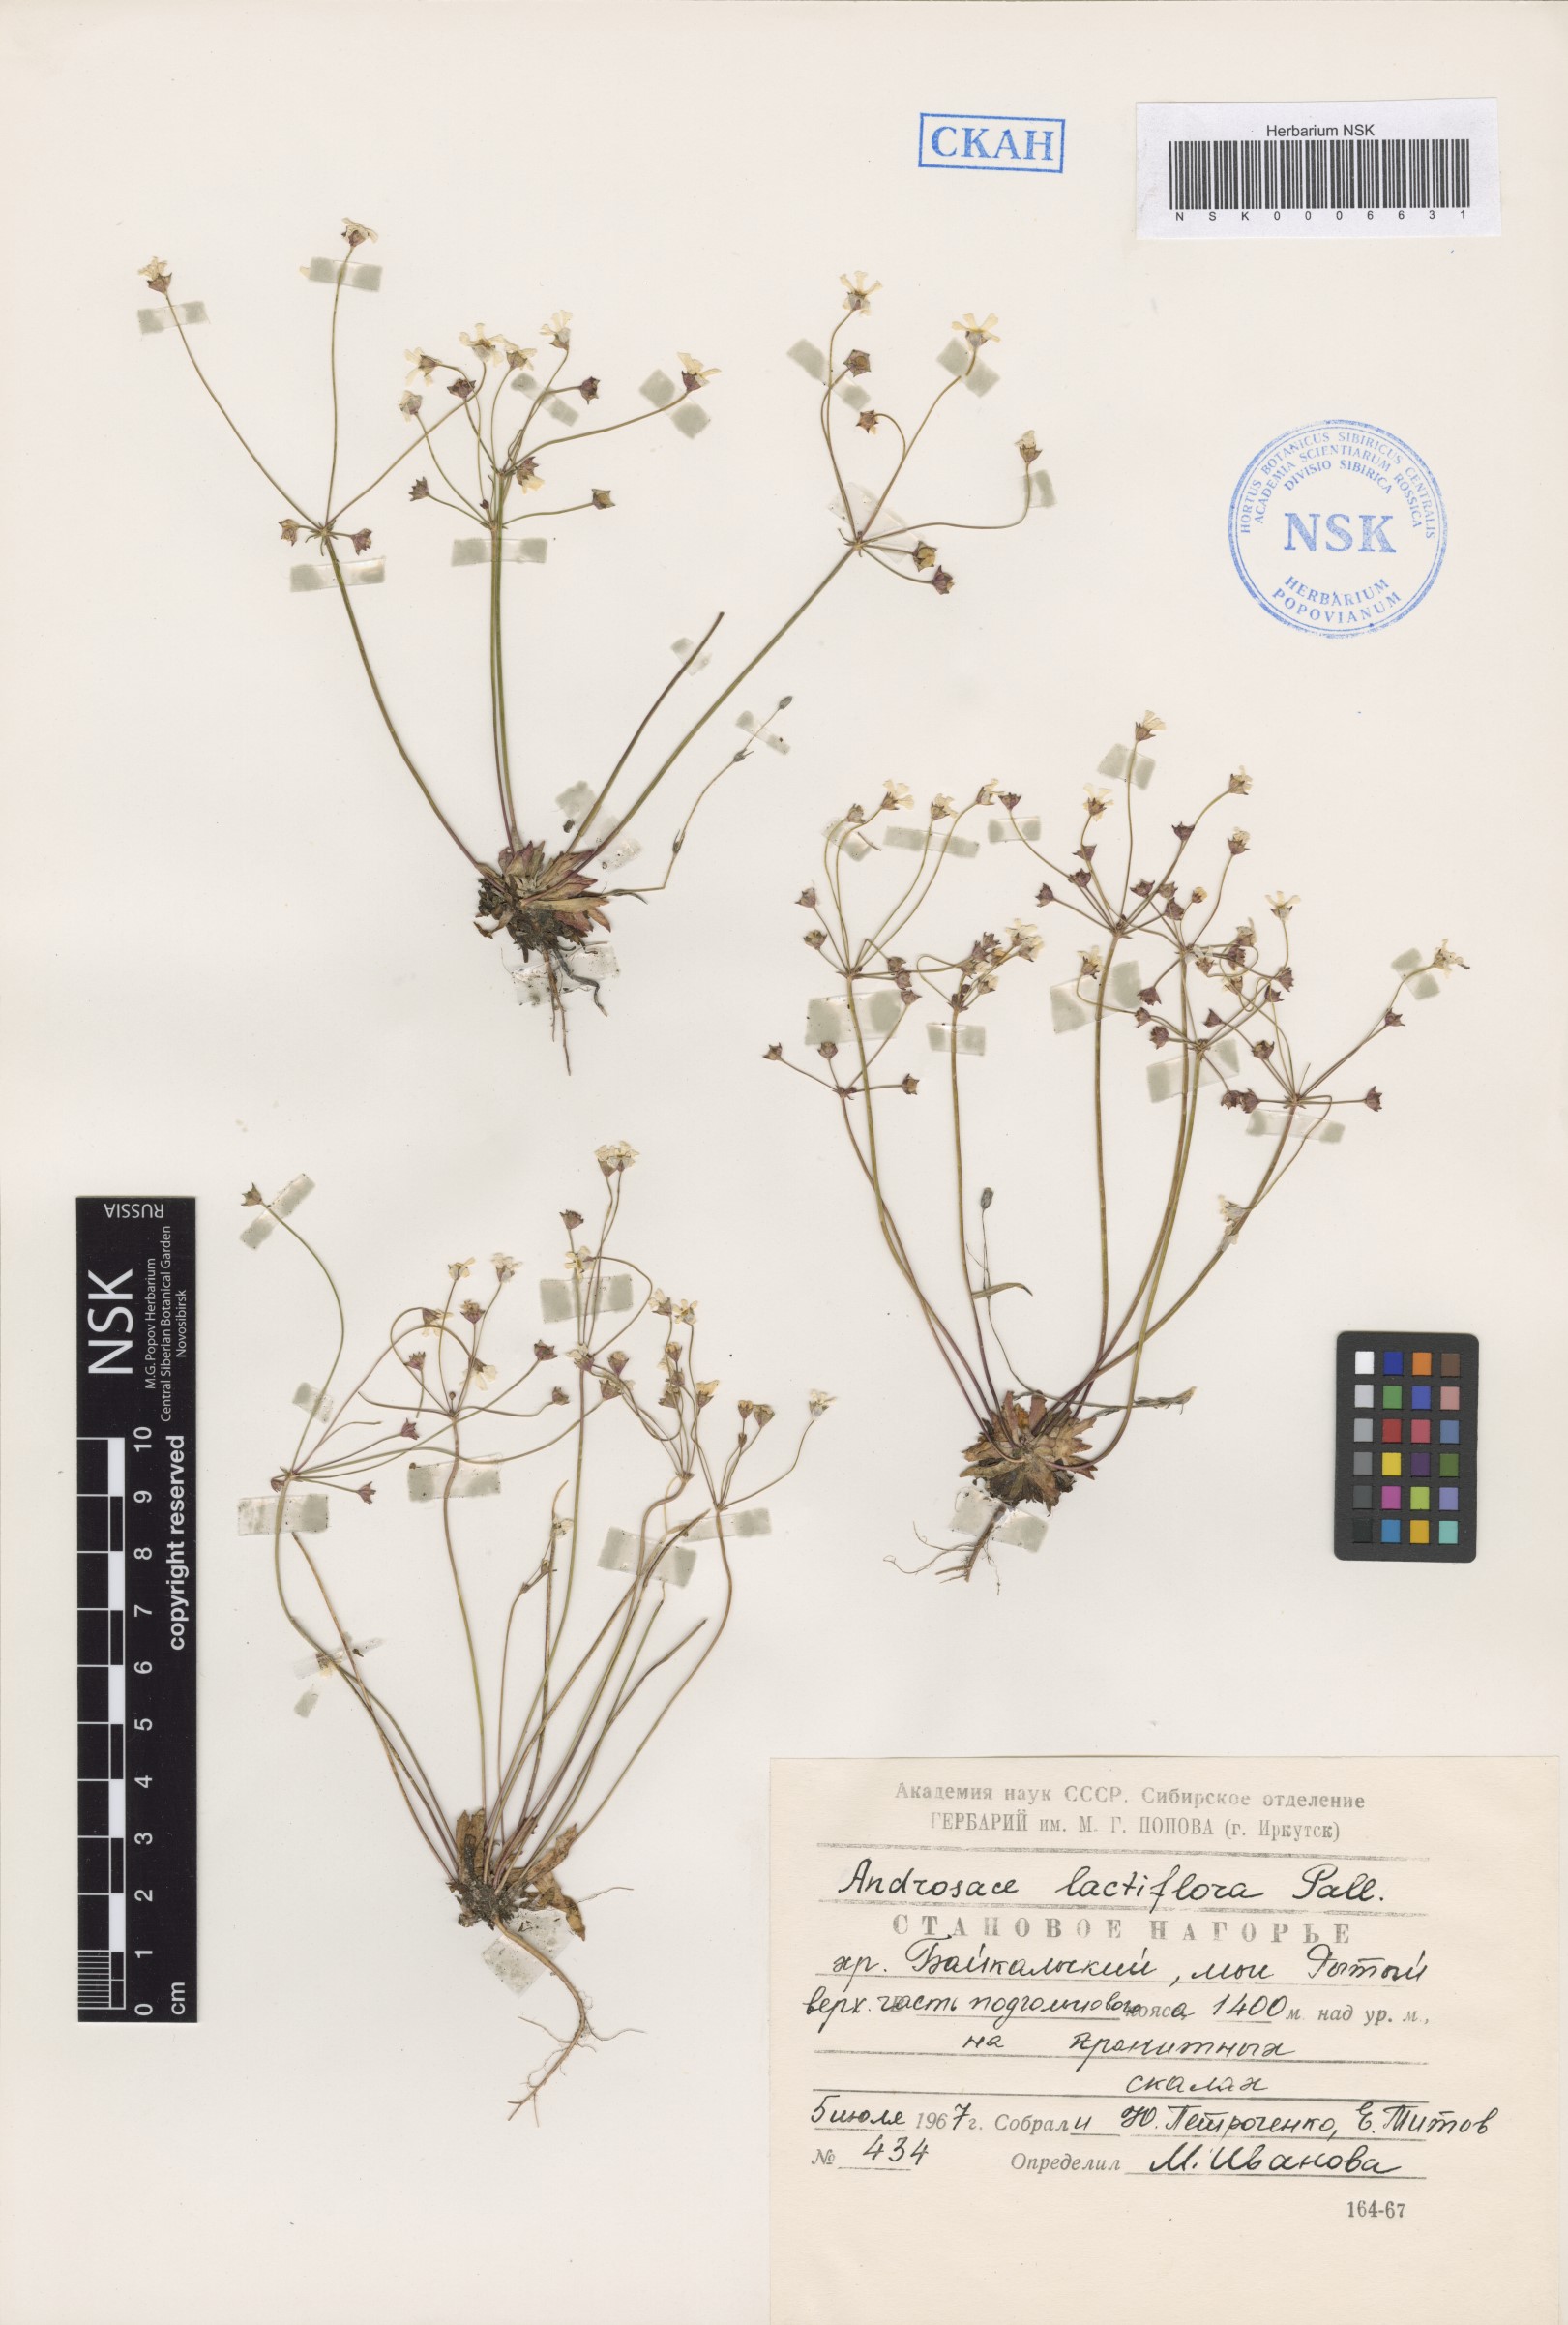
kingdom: Plantae
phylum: Tracheophyta
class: Magnoliopsida
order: Ericales
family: Primulaceae
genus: Androsace
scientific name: Androsace lactiflora
